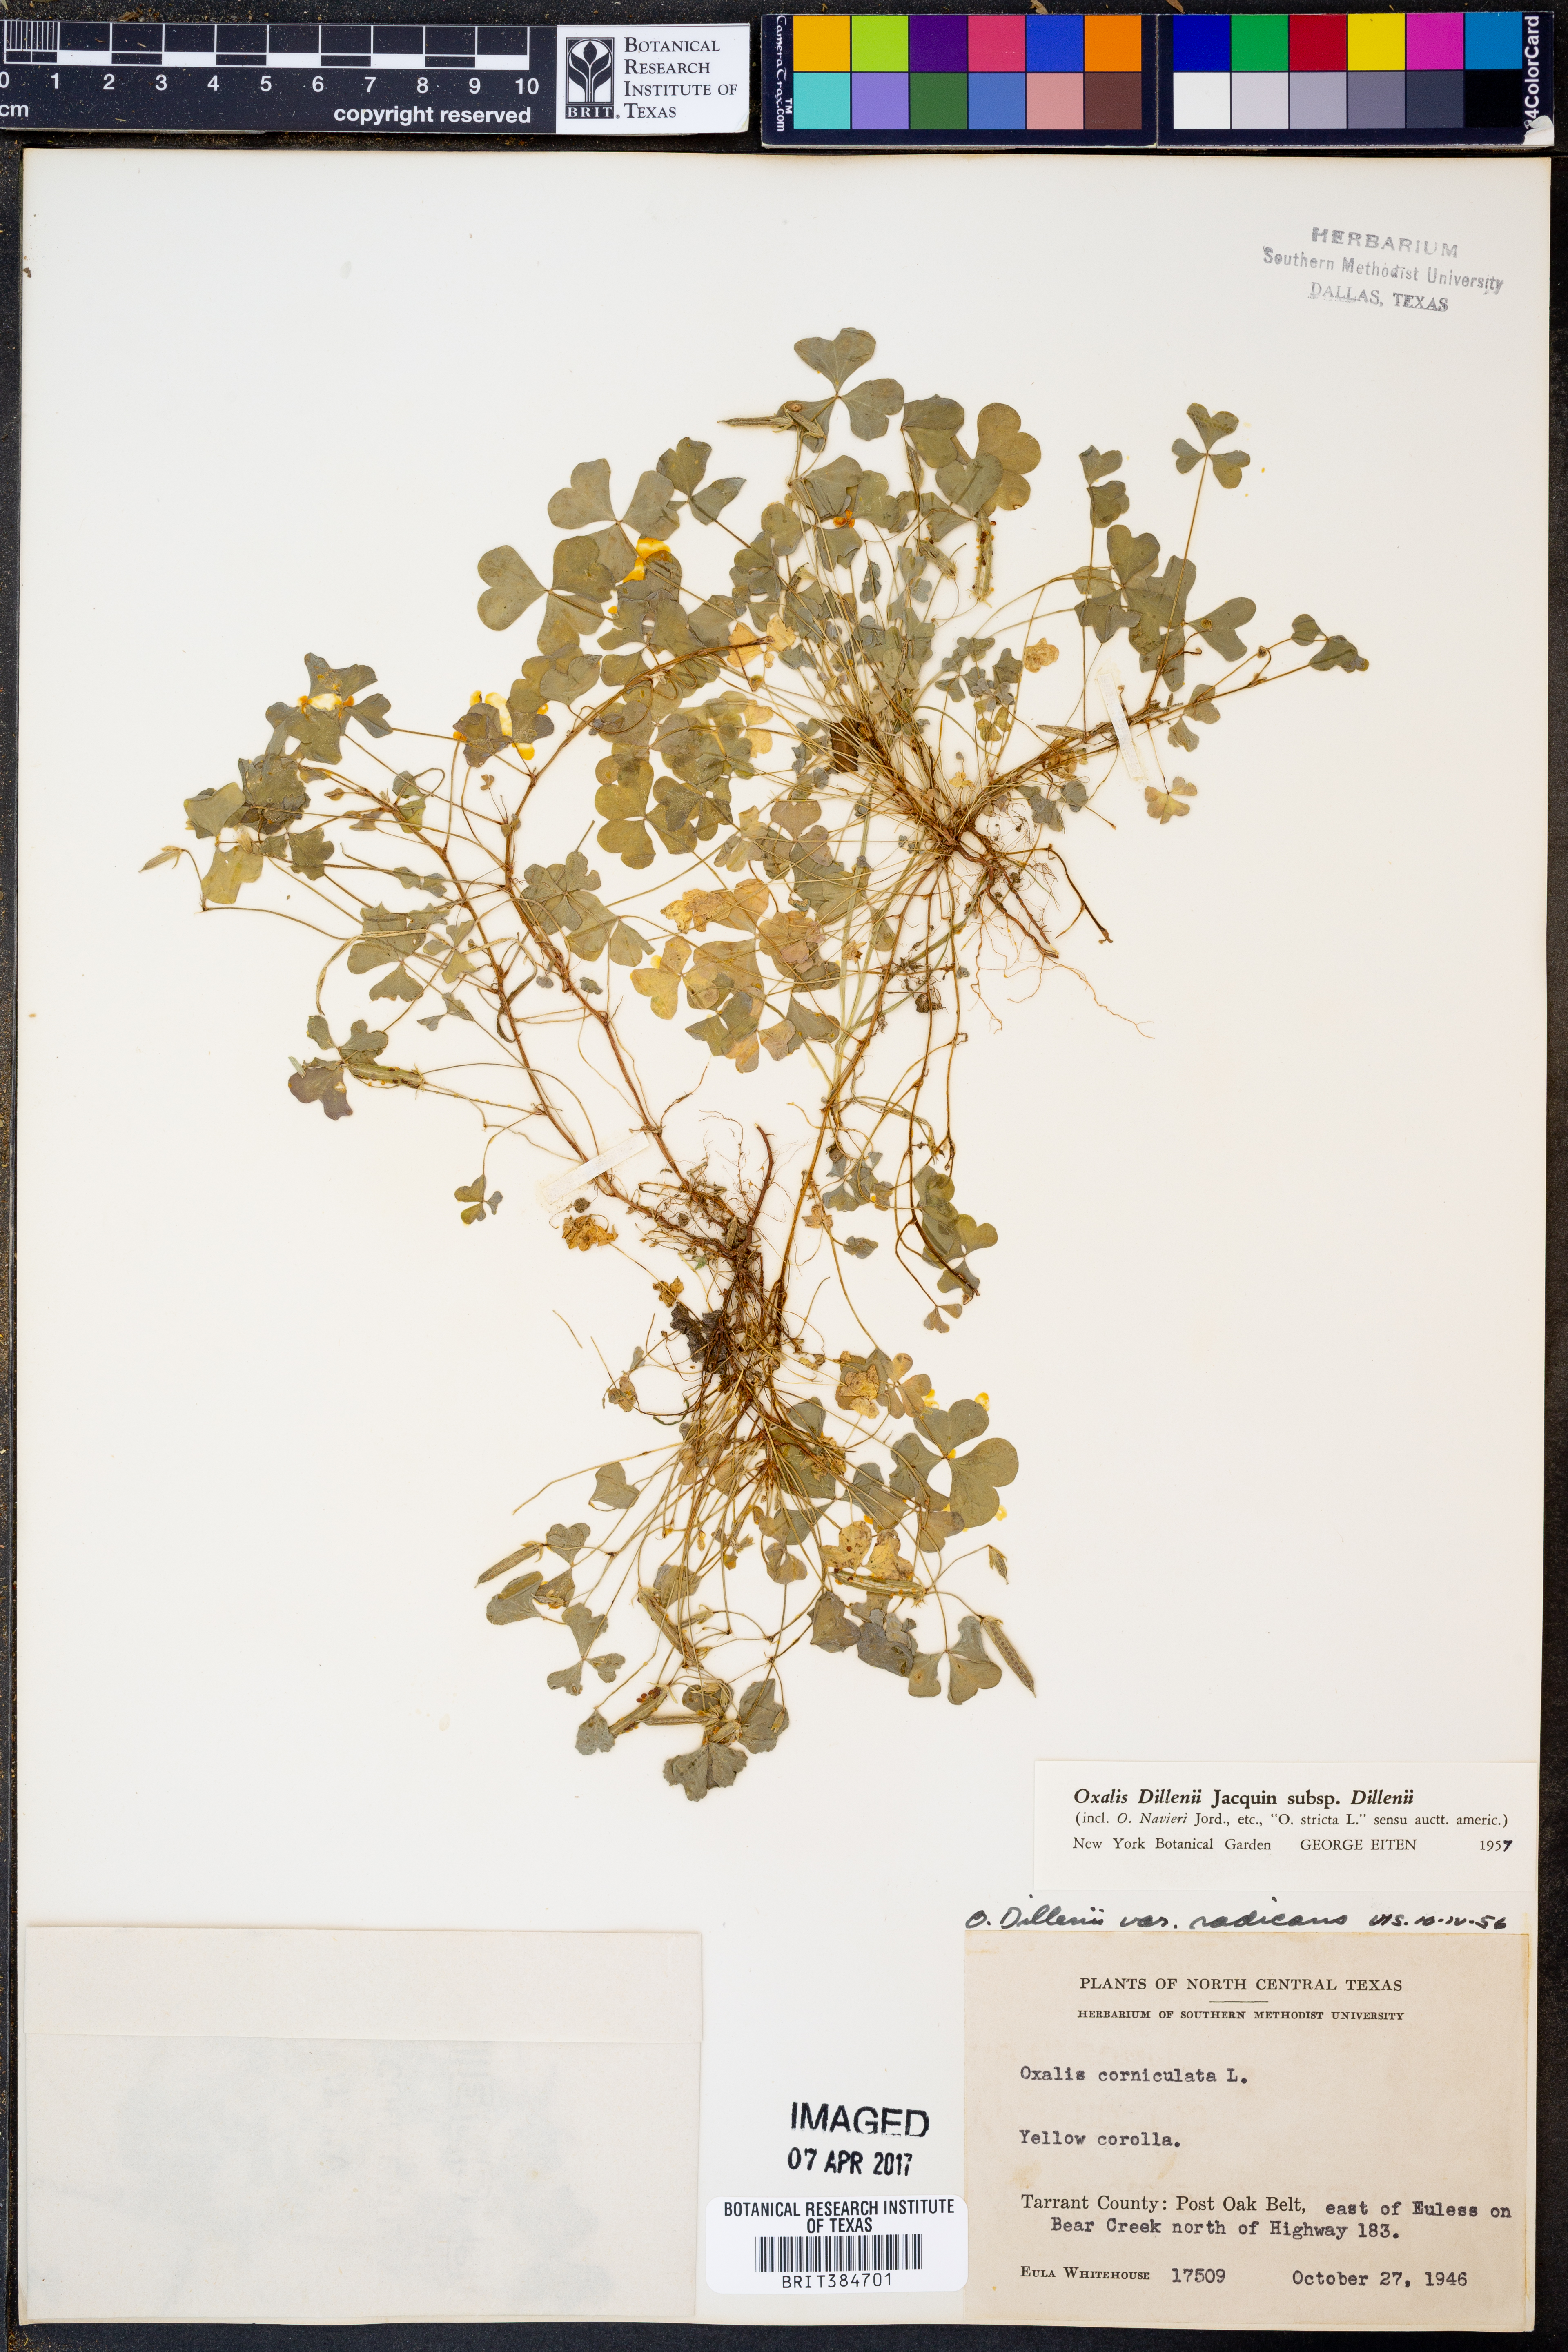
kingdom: Plantae
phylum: Tracheophyta
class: Magnoliopsida
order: Oxalidales
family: Oxalidaceae
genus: Oxalis
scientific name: Oxalis dillenii
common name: Sussex yellow-sorrel
